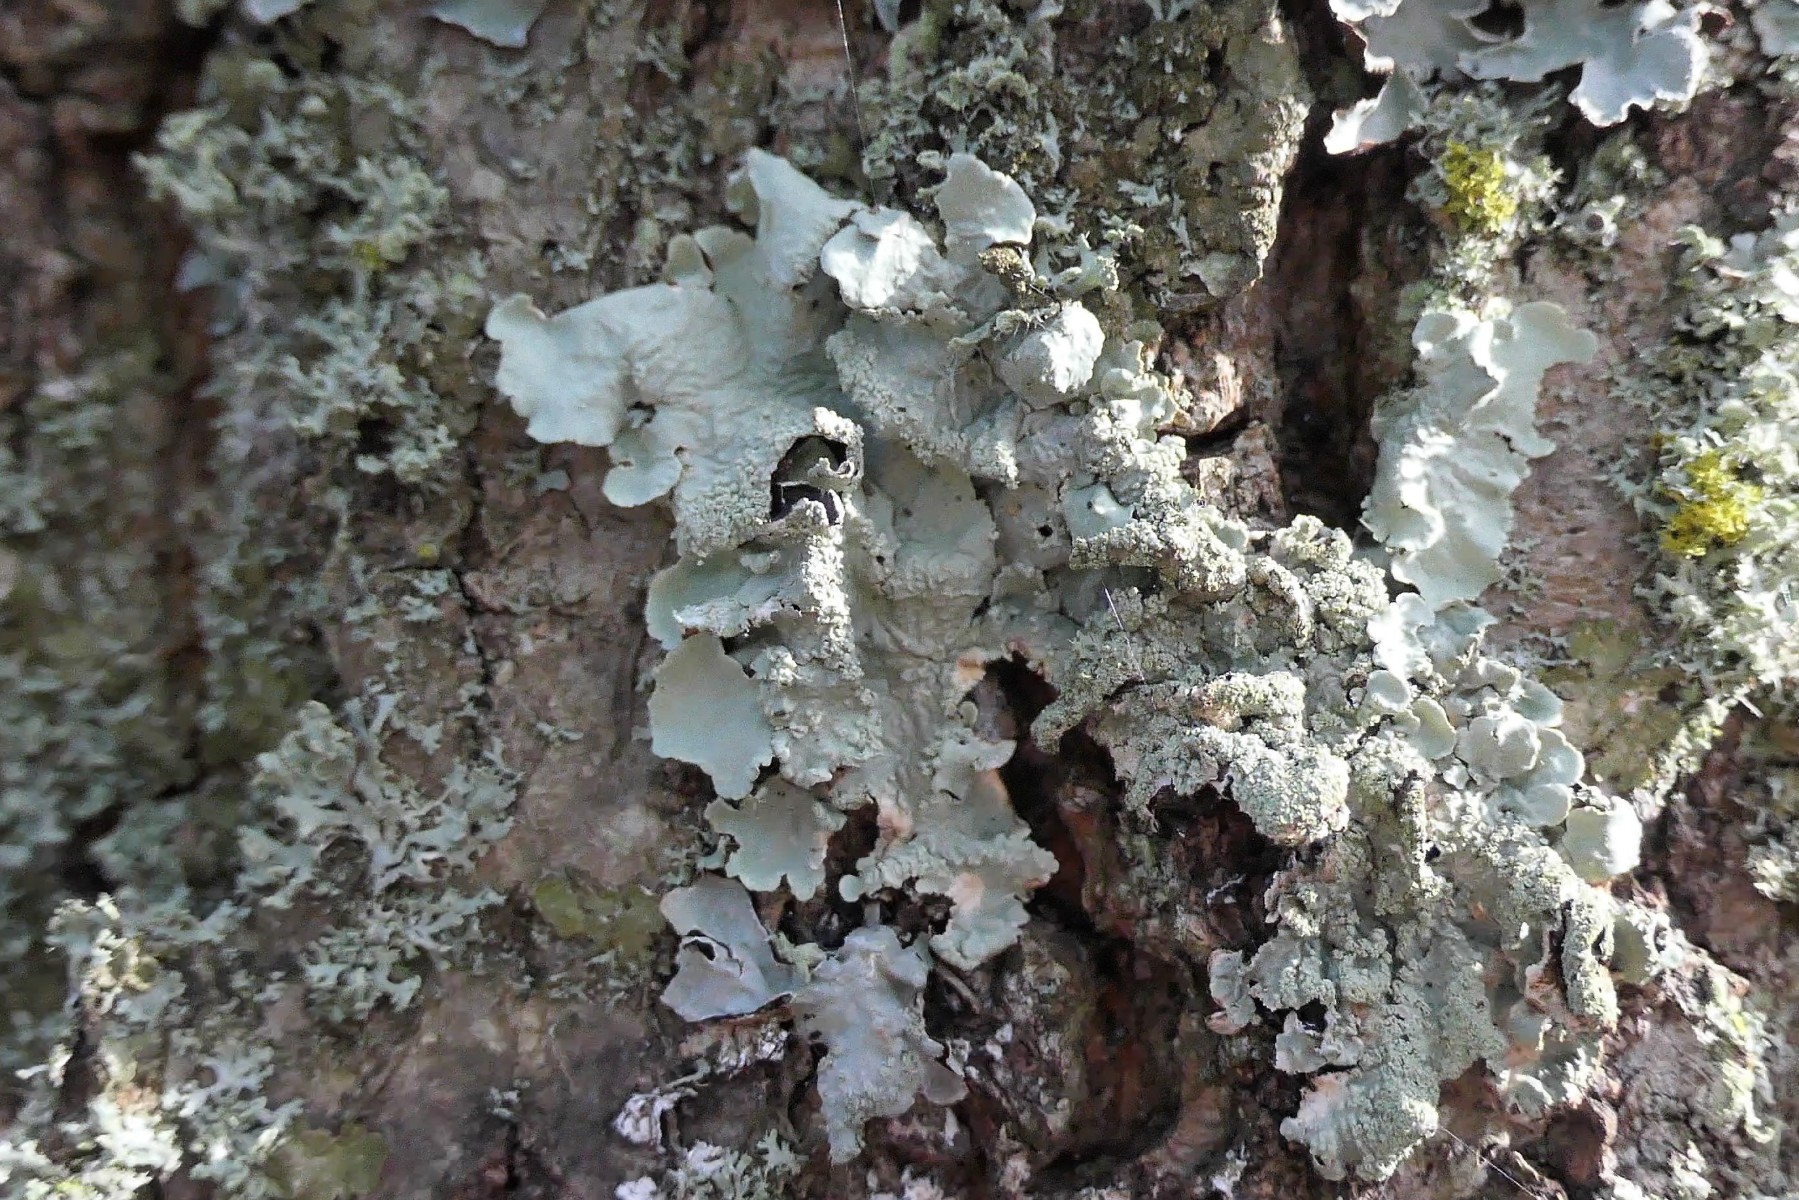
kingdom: Fungi
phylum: Ascomycota
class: Lecanoromycetes
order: Lecanorales
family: Parmeliaceae
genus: Flavoparmelia
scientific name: Flavoparmelia caperata
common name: gulgrøn skållav
